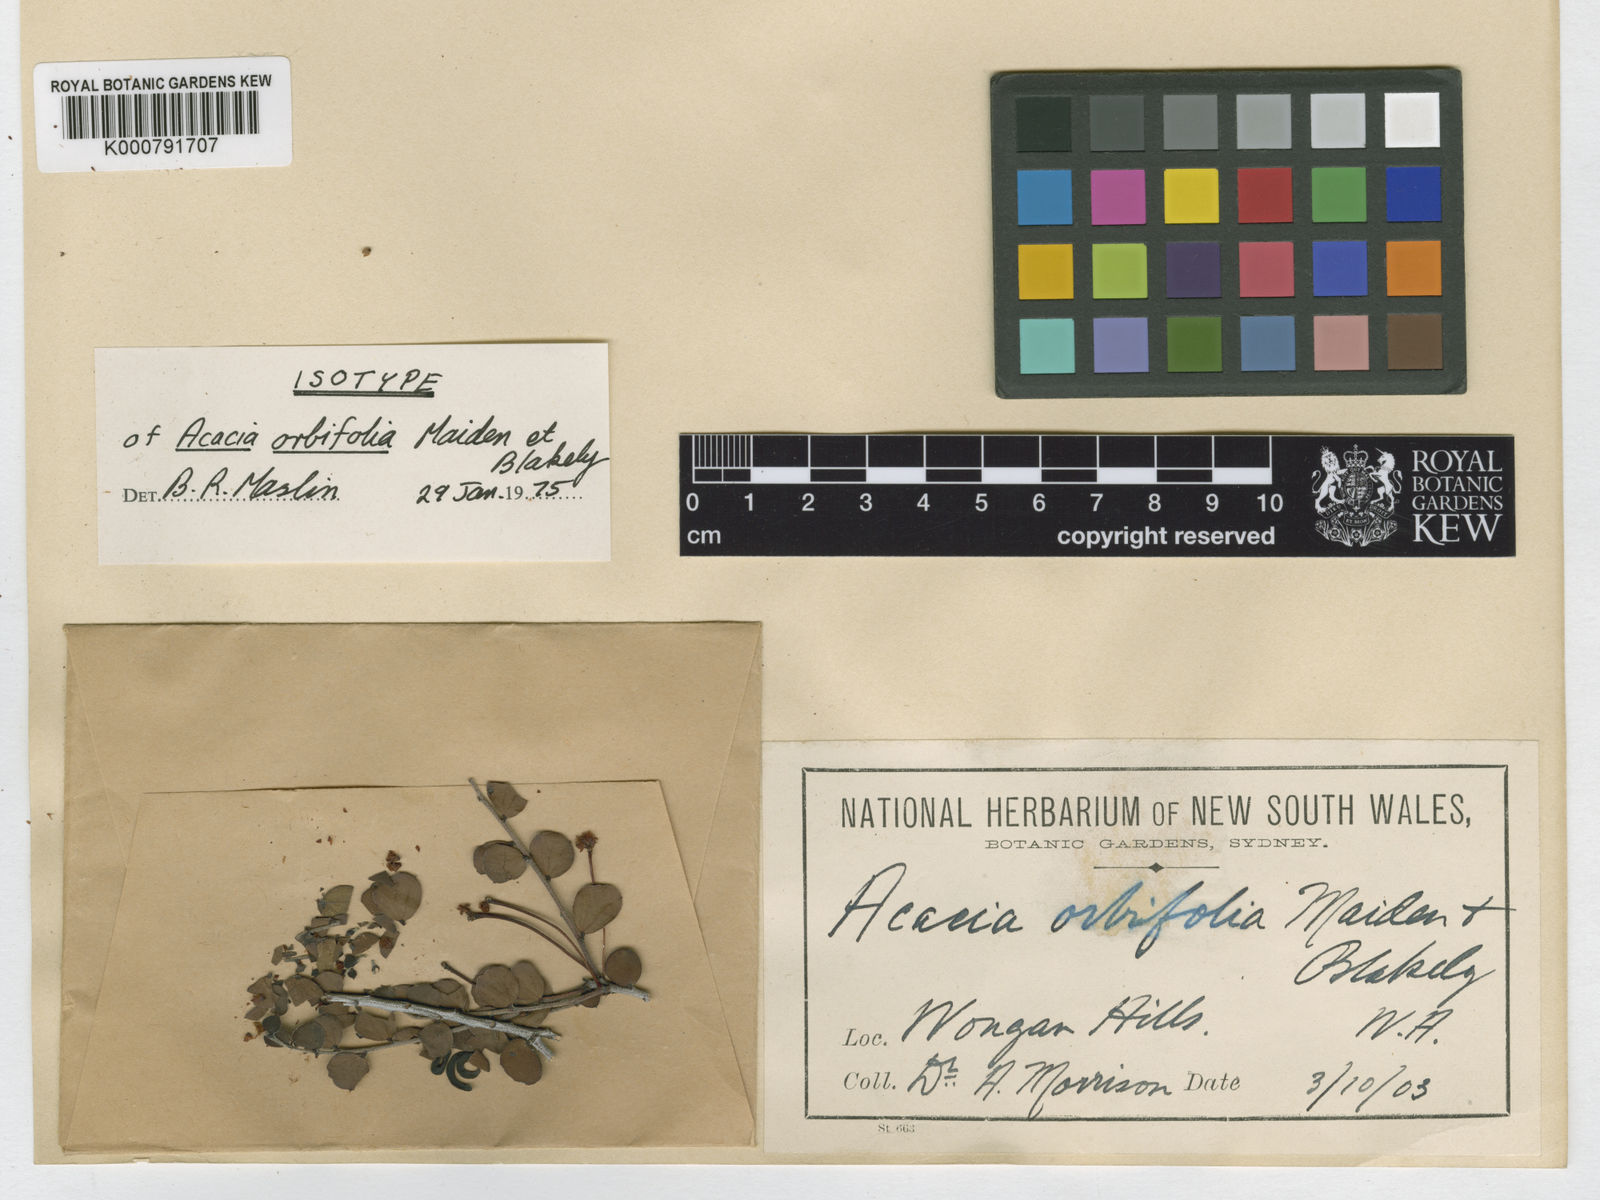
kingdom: Plantae
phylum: Tracheophyta
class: Magnoliopsida
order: Fabales
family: Fabaceae
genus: Acacia
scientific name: Acacia orbifolia
